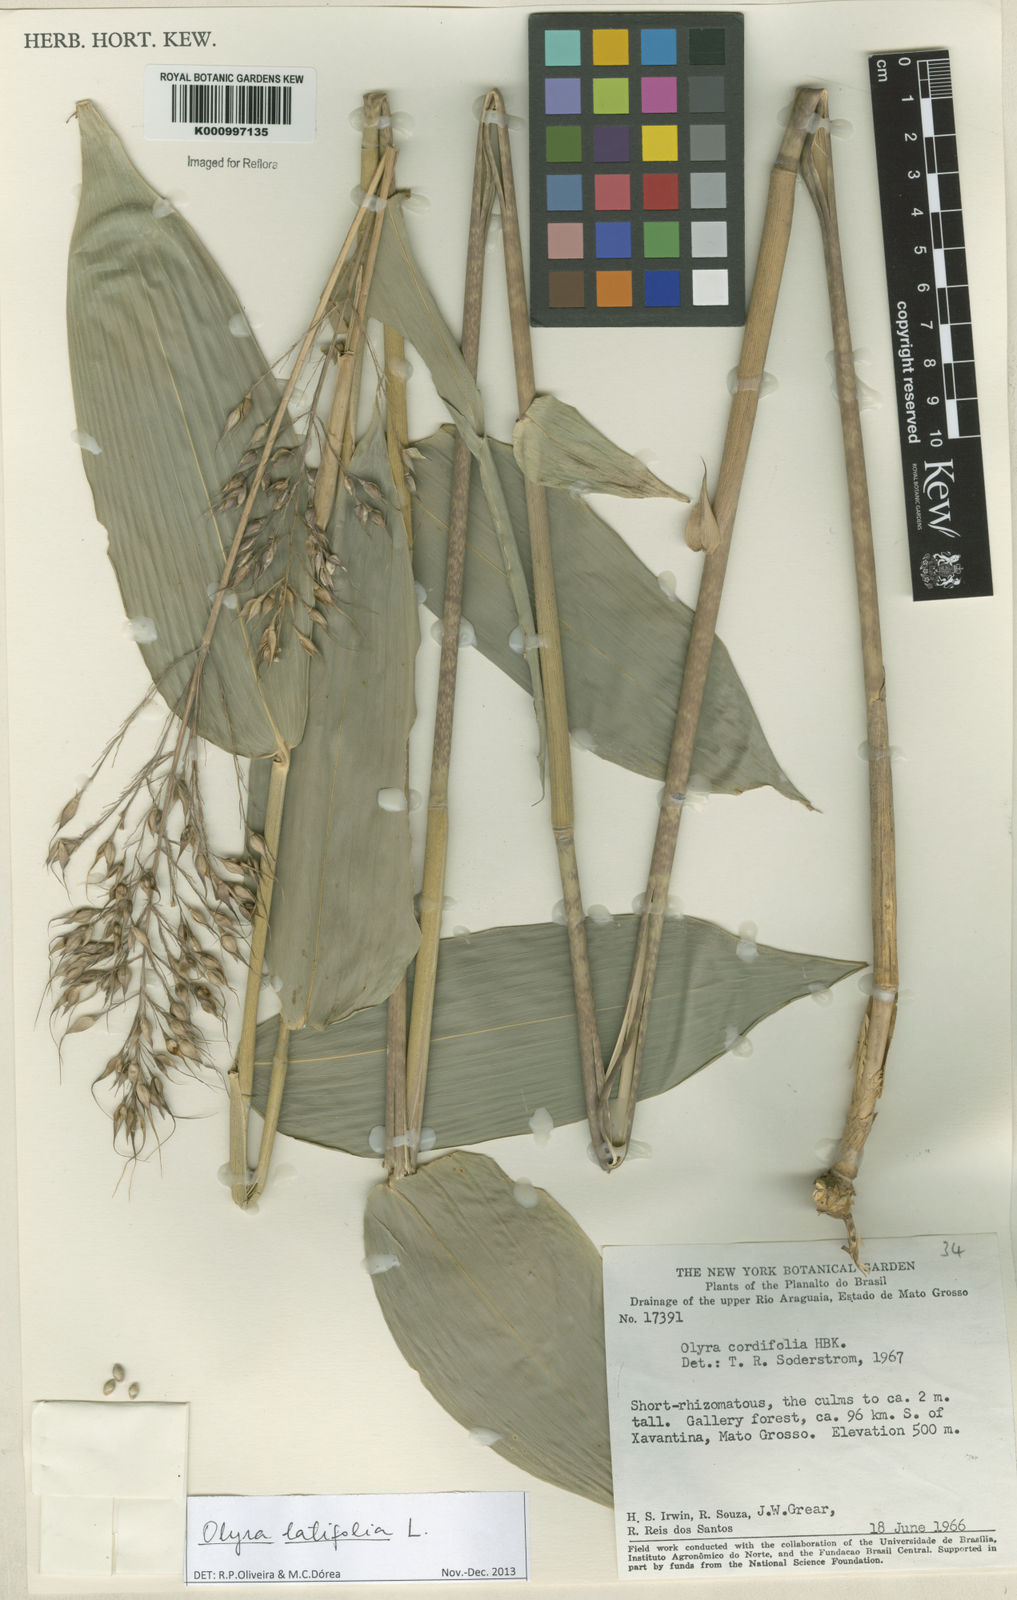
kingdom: Plantae
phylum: Tracheophyta
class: Liliopsida
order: Poales
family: Poaceae
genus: Olyra
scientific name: Olyra latifolia
